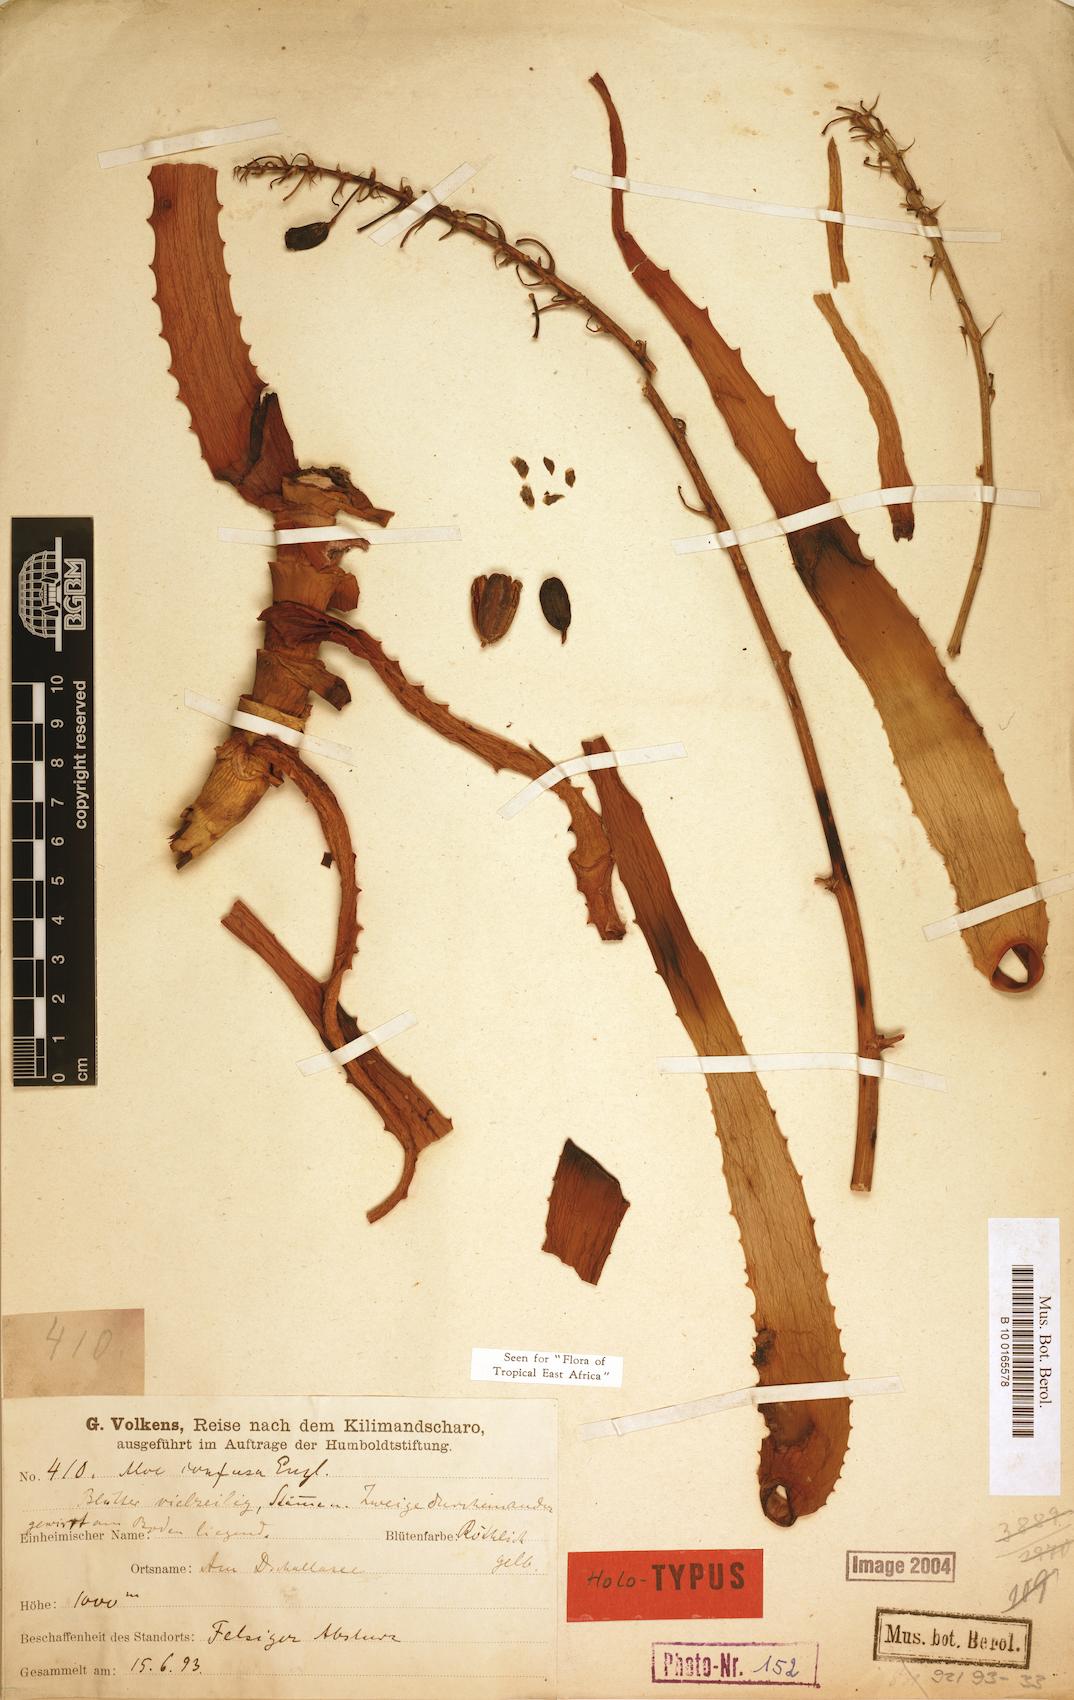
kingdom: Plantae
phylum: Tracheophyta
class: Liliopsida
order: Asparagales
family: Asphodelaceae
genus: Aloe
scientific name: Aloe confusa
